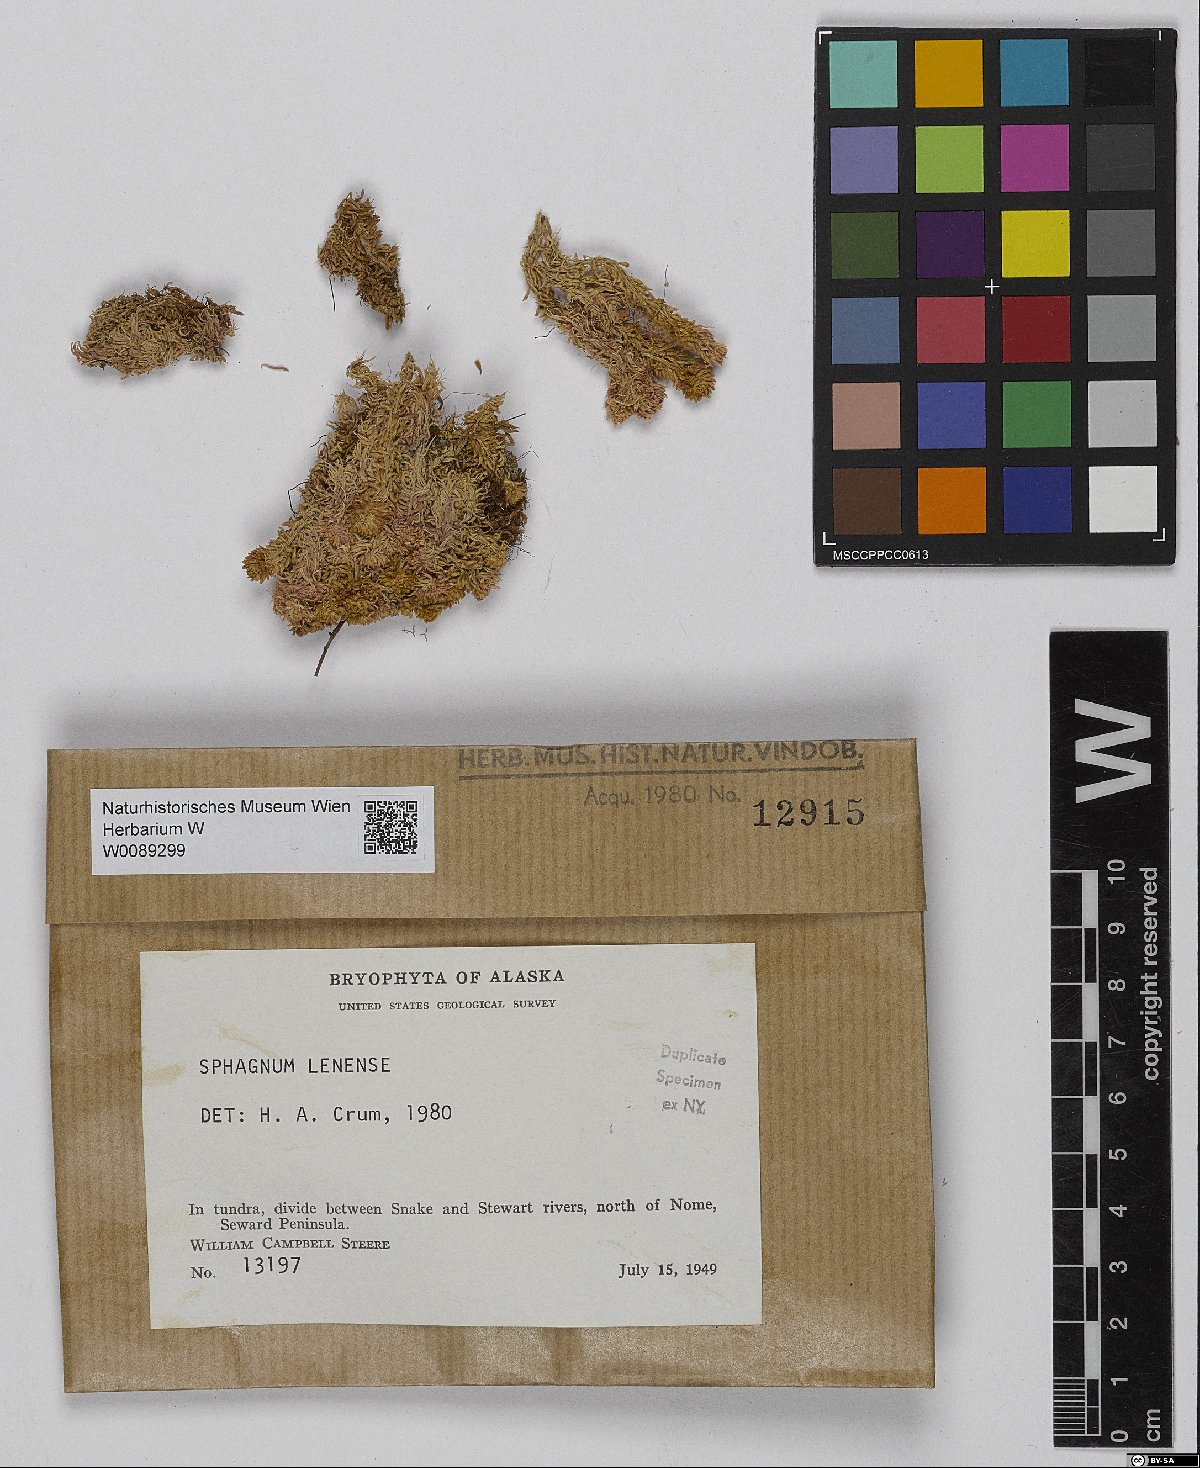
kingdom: Plantae
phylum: Bryophyta
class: Sphagnopsida
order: Sphagnales
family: Sphagnaceae
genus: Sphagnum
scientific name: Sphagnum lenense
